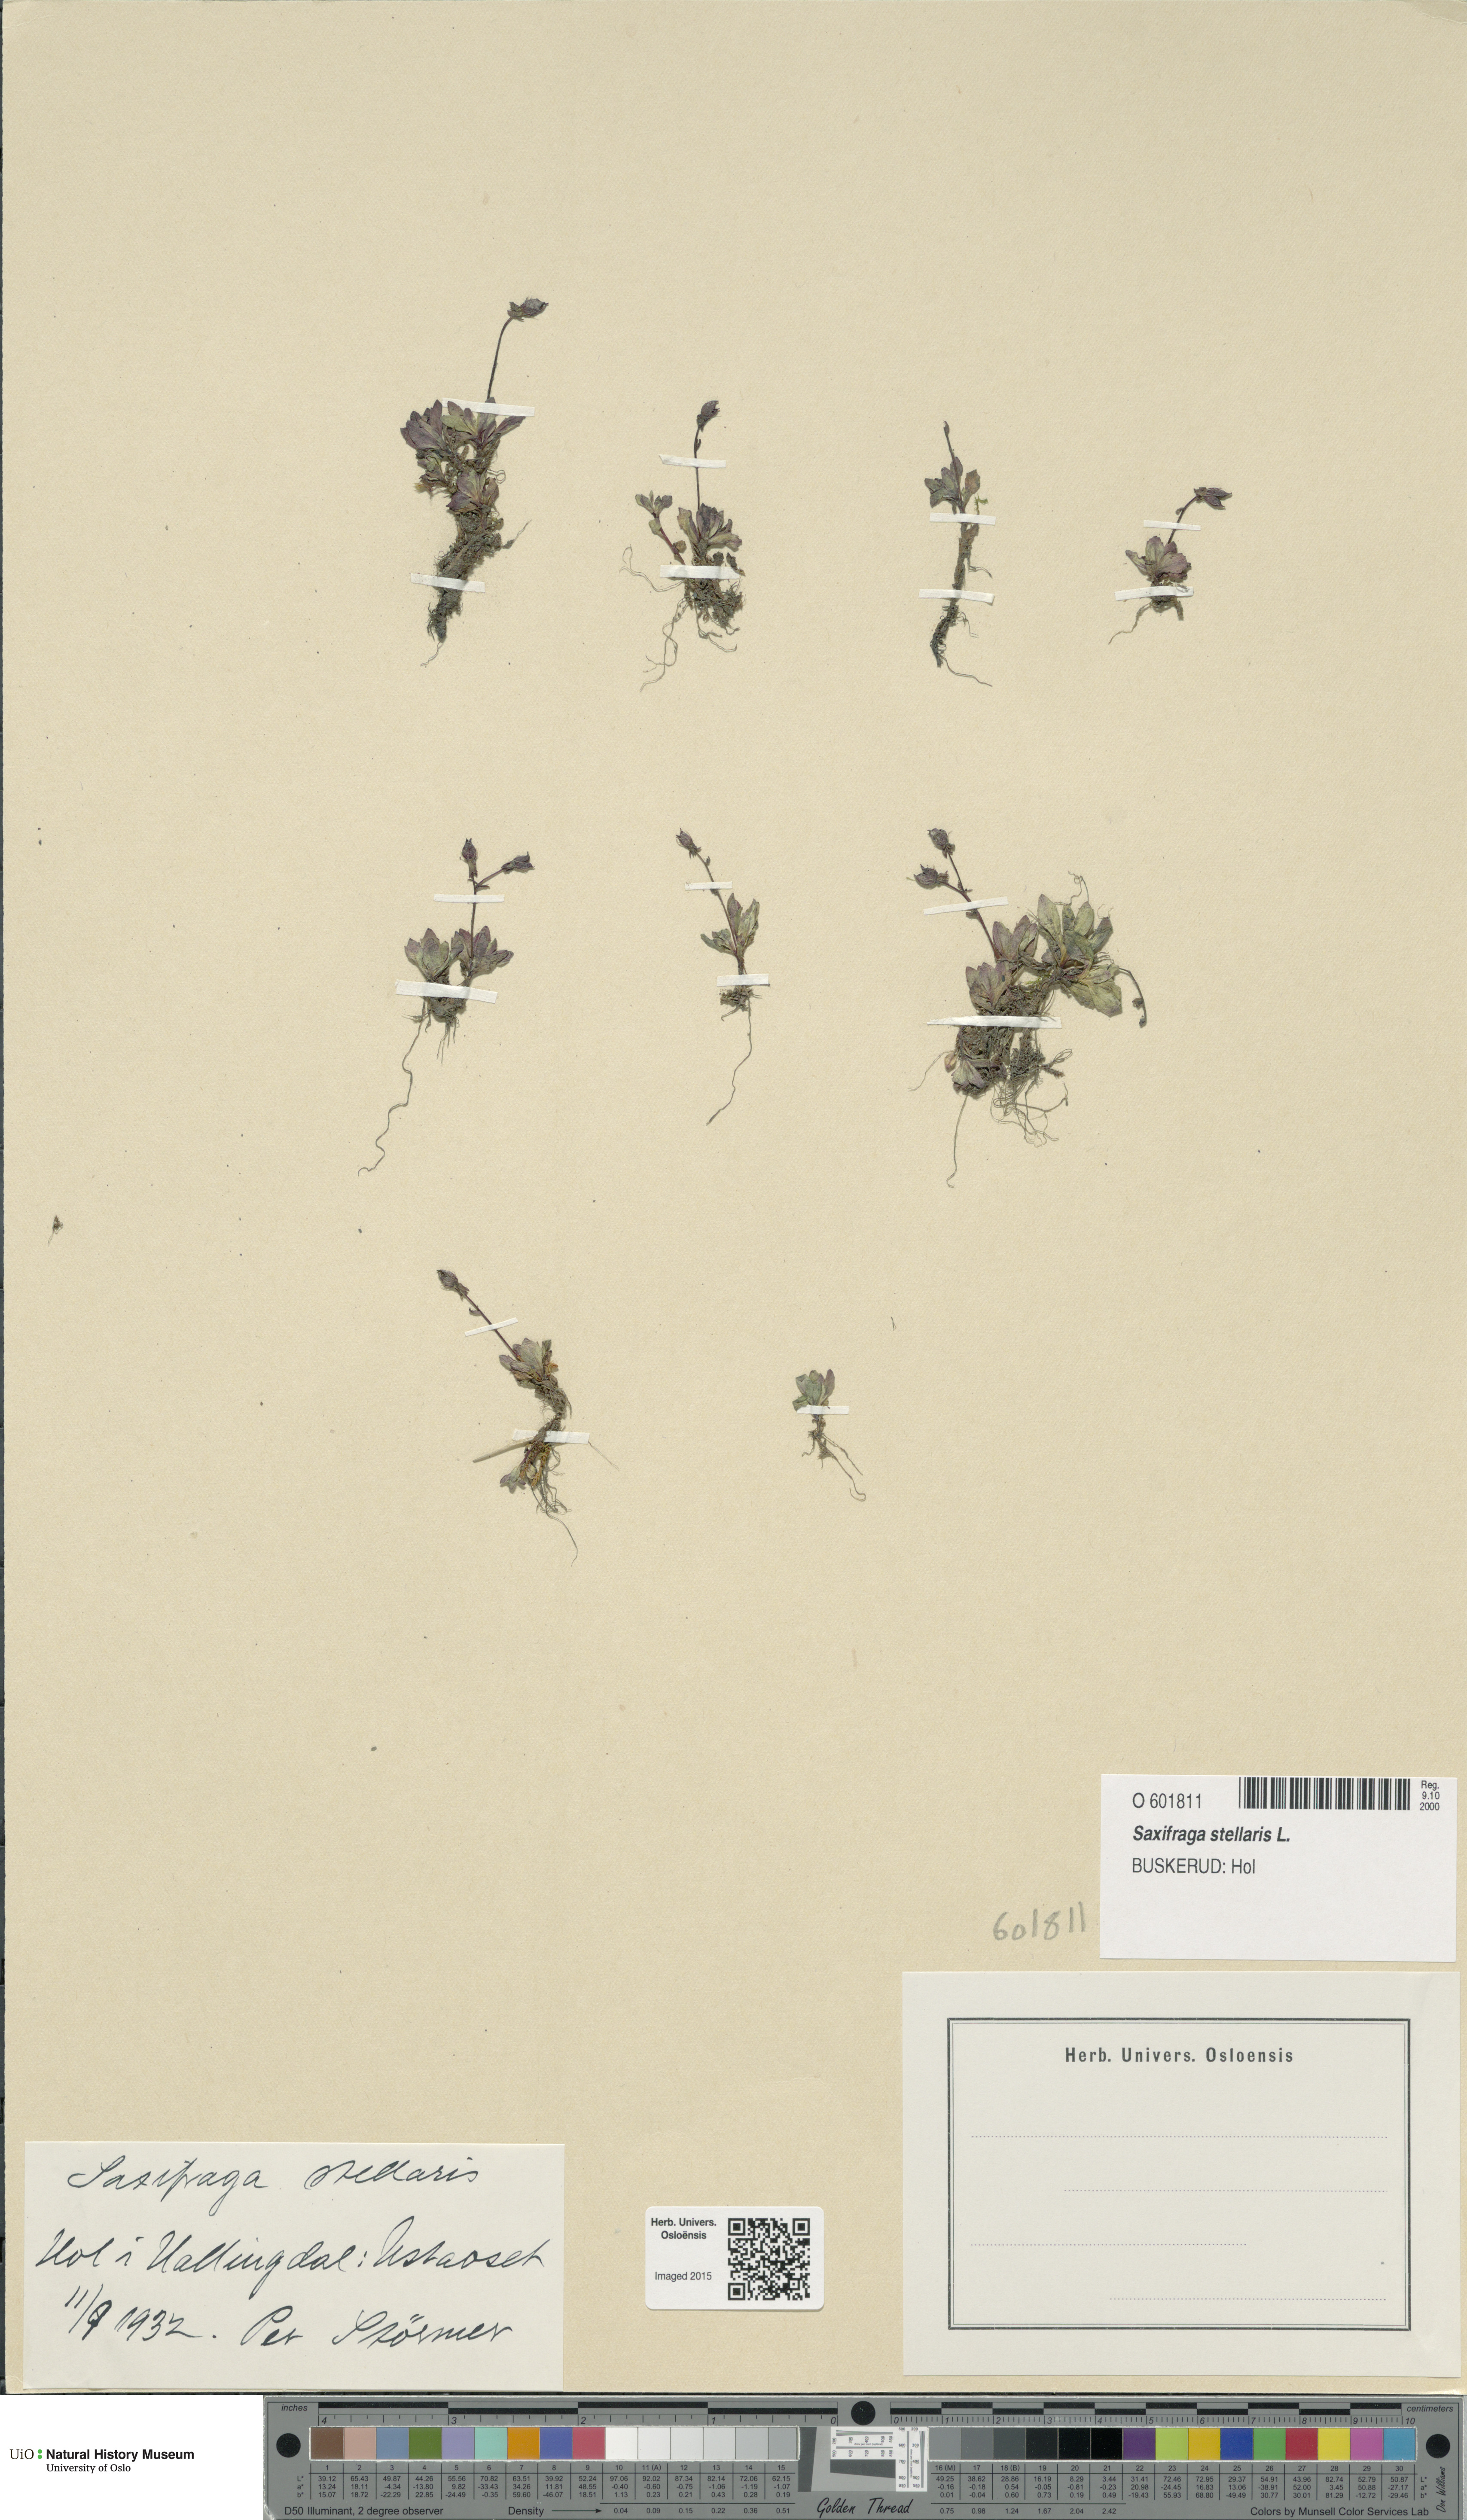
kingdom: Plantae
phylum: Tracheophyta
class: Magnoliopsida
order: Saxifragales
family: Saxifragaceae
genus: Micranthes
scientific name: Micranthes stellaris
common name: Starry saxifrage
